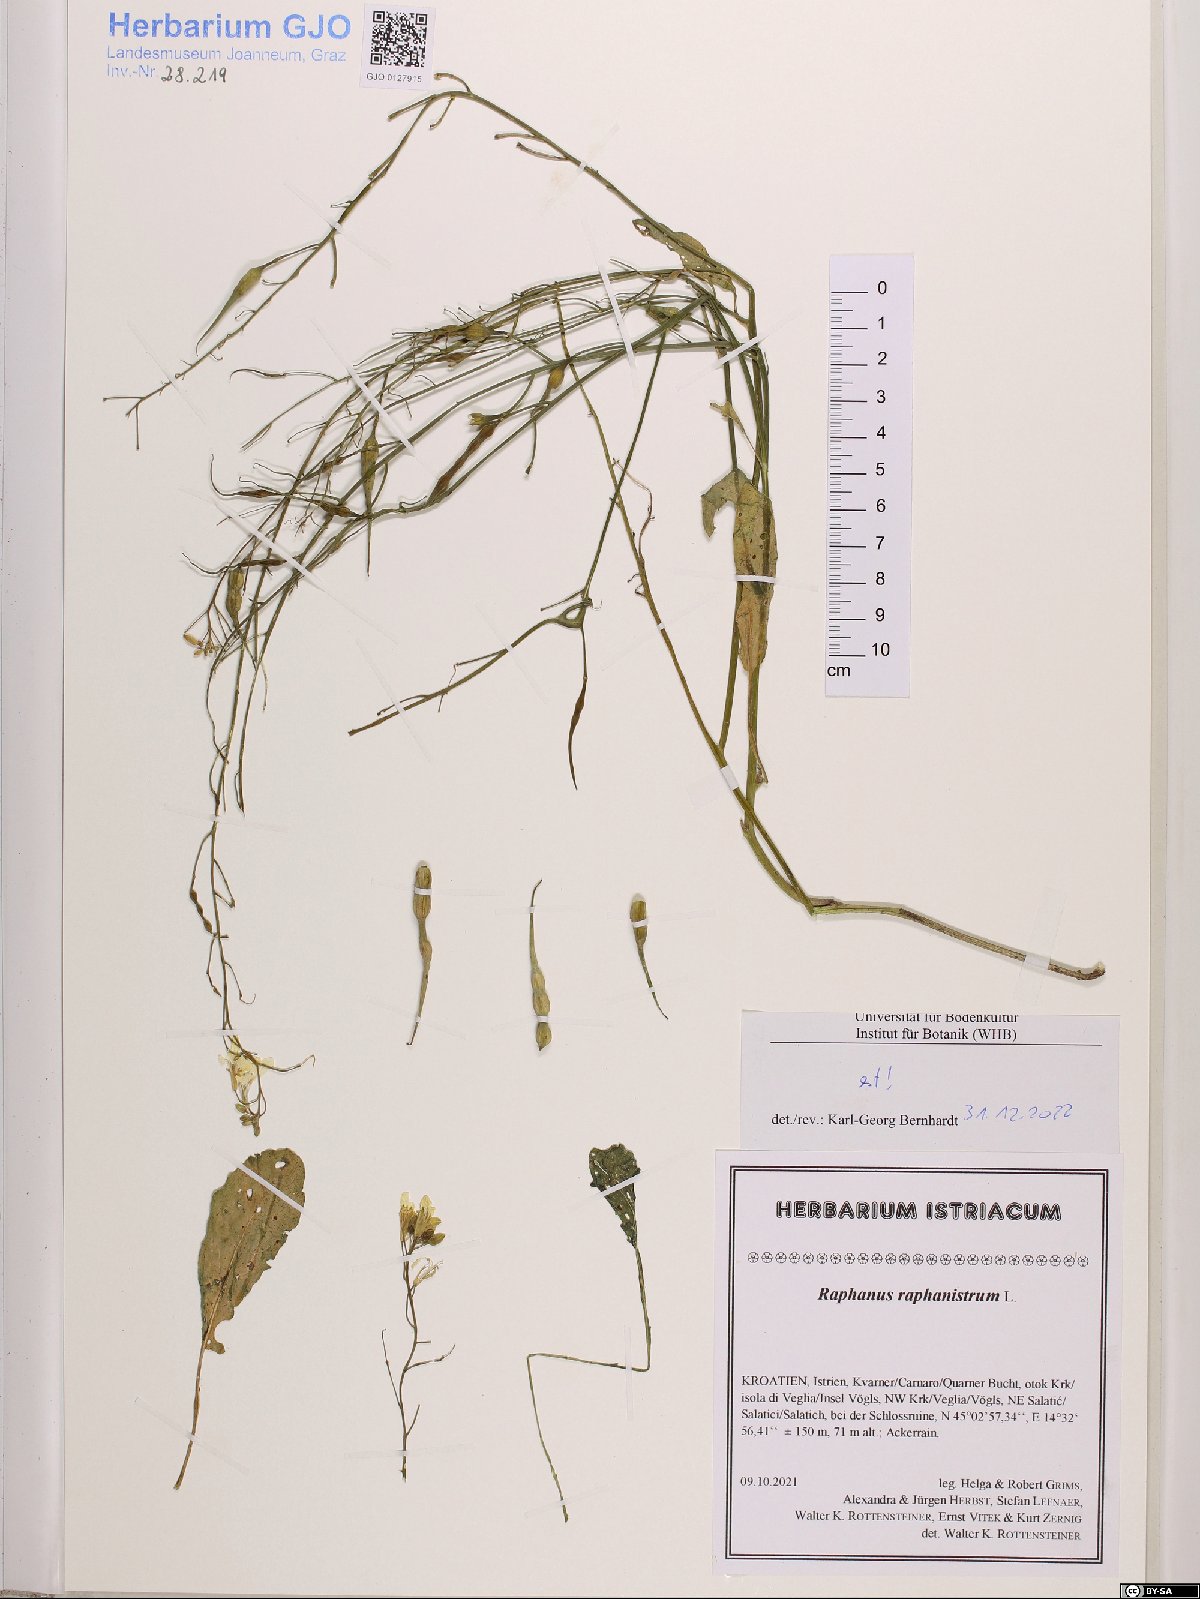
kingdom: Plantae
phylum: Tracheophyta
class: Magnoliopsida
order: Brassicales
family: Brassicaceae
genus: Raphanus
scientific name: Raphanus raphanistrum
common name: Wild radish
